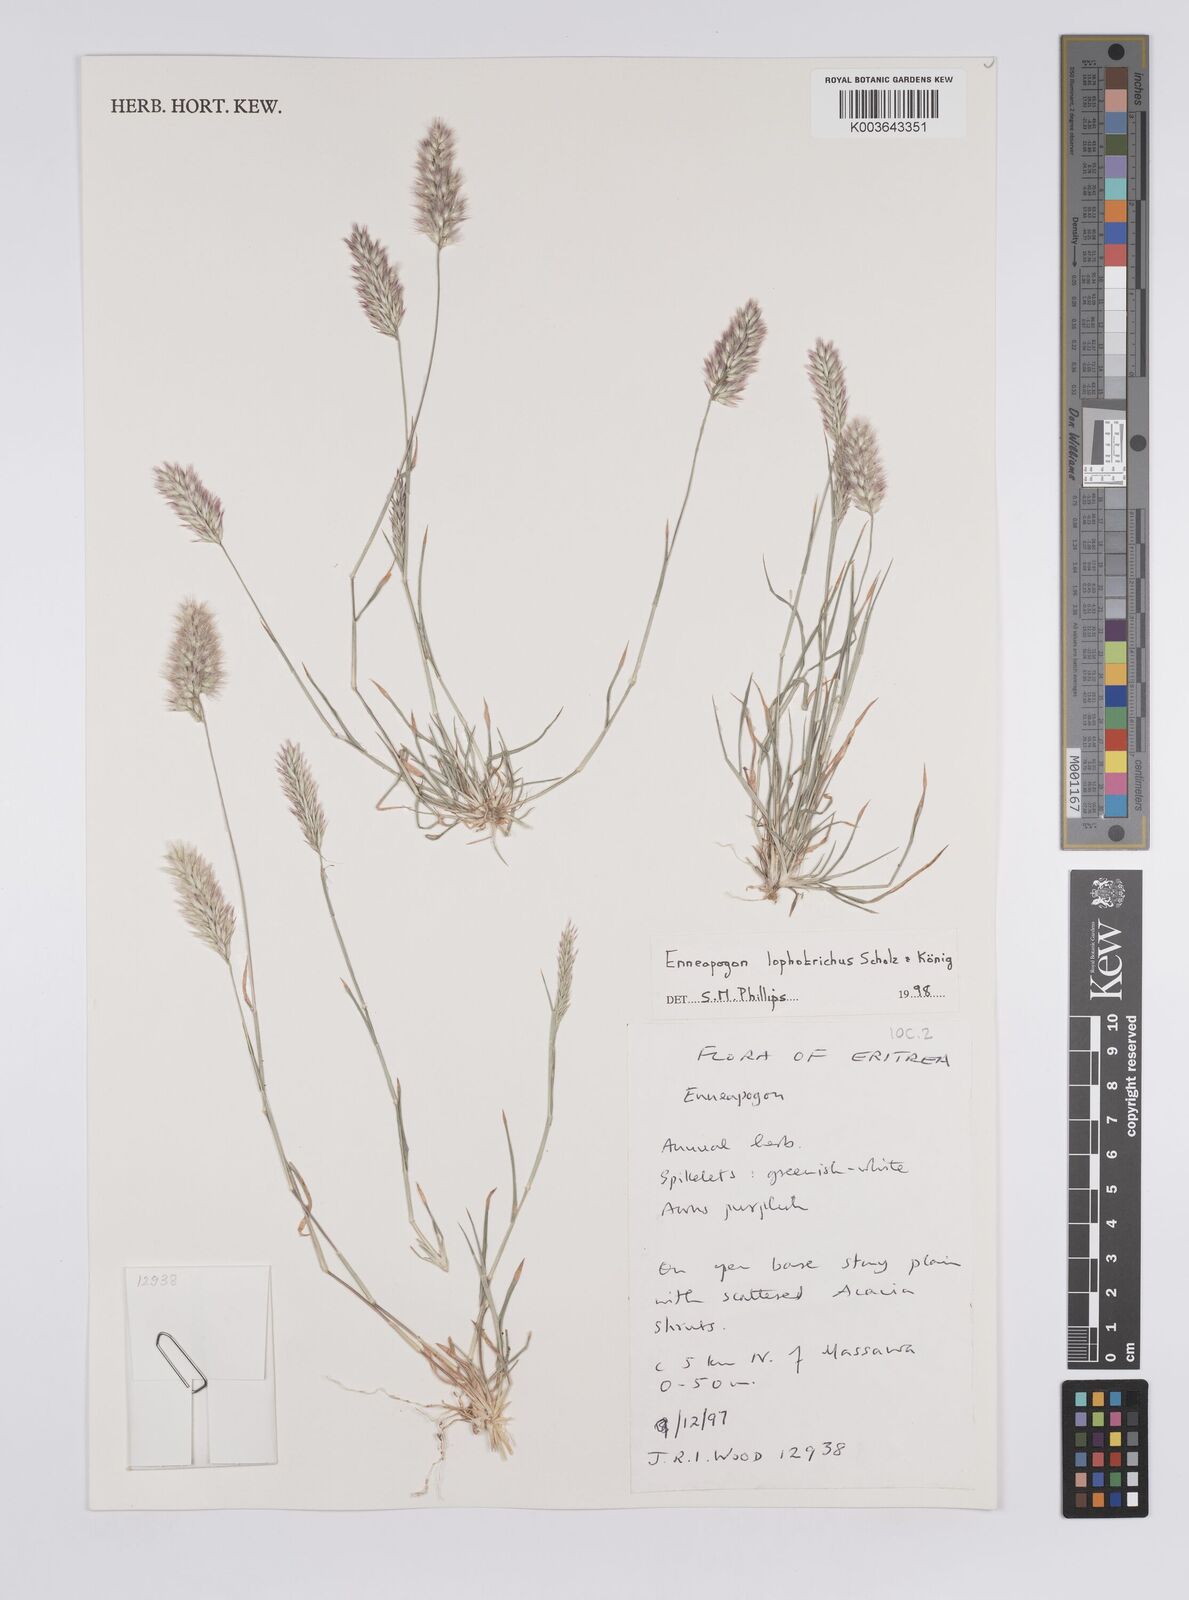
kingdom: Plantae
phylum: Tracheophyta
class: Liliopsida
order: Poales
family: Poaceae
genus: Enneapogon
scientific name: Enneapogon lophotrichus
